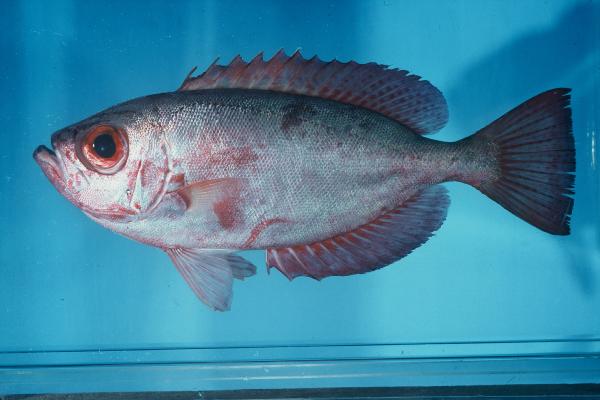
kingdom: Animalia
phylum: Chordata
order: Perciformes
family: Priacanthidae
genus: Heteropriacanthus
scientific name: Heteropriacanthus cruentatus
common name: Glasseye
